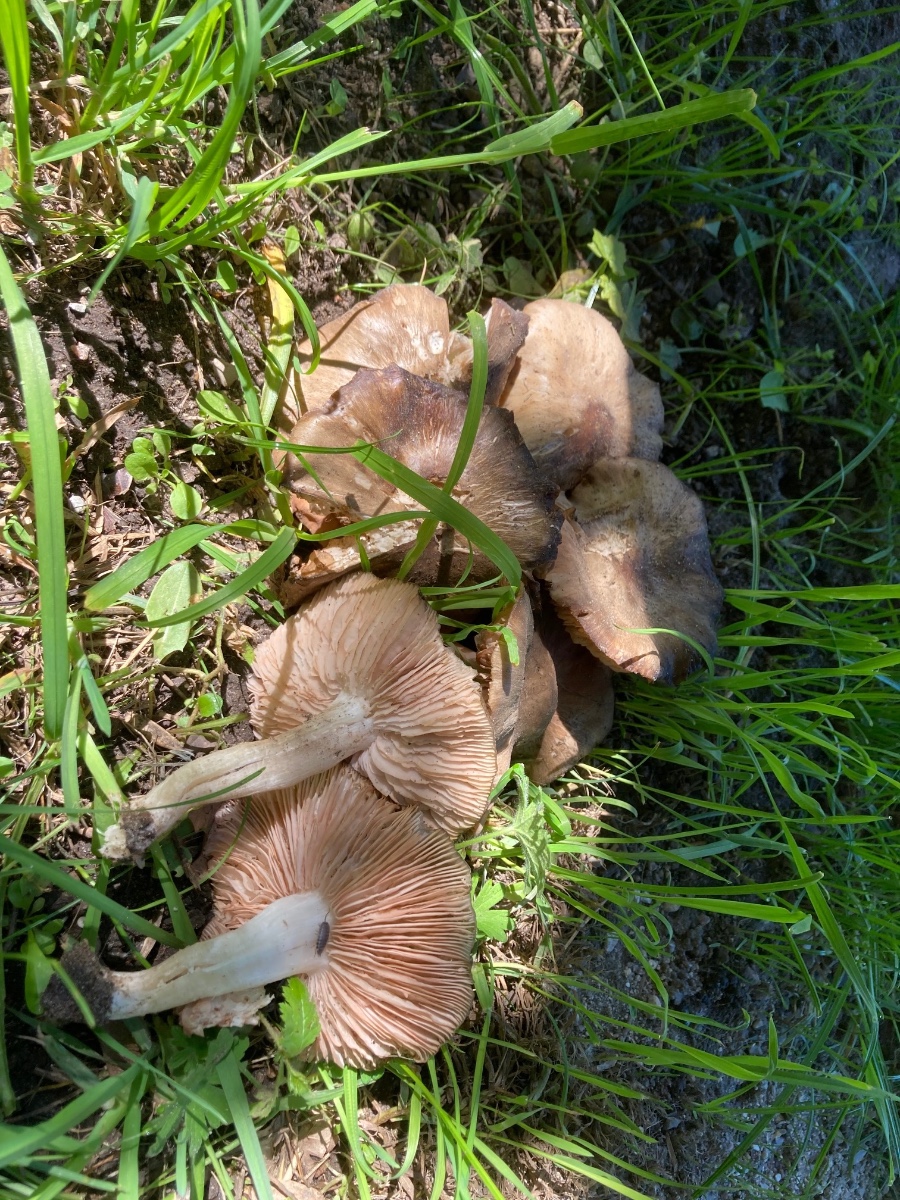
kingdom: Fungi
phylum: Basidiomycota
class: Agaricomycetes
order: Agaricales
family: Entolomataceae
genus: Entoloma
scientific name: Entoloma clypeatum
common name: flammet rødblad
